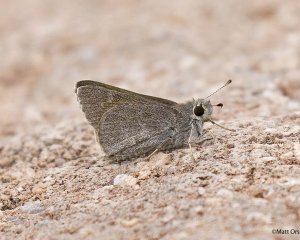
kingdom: Animalia
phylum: Arthropoda
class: Insecta
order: Lepidoptera
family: Hesperiidae
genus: Mastor
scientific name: Mastor oslari
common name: Oslar's Roadside-Skipper
